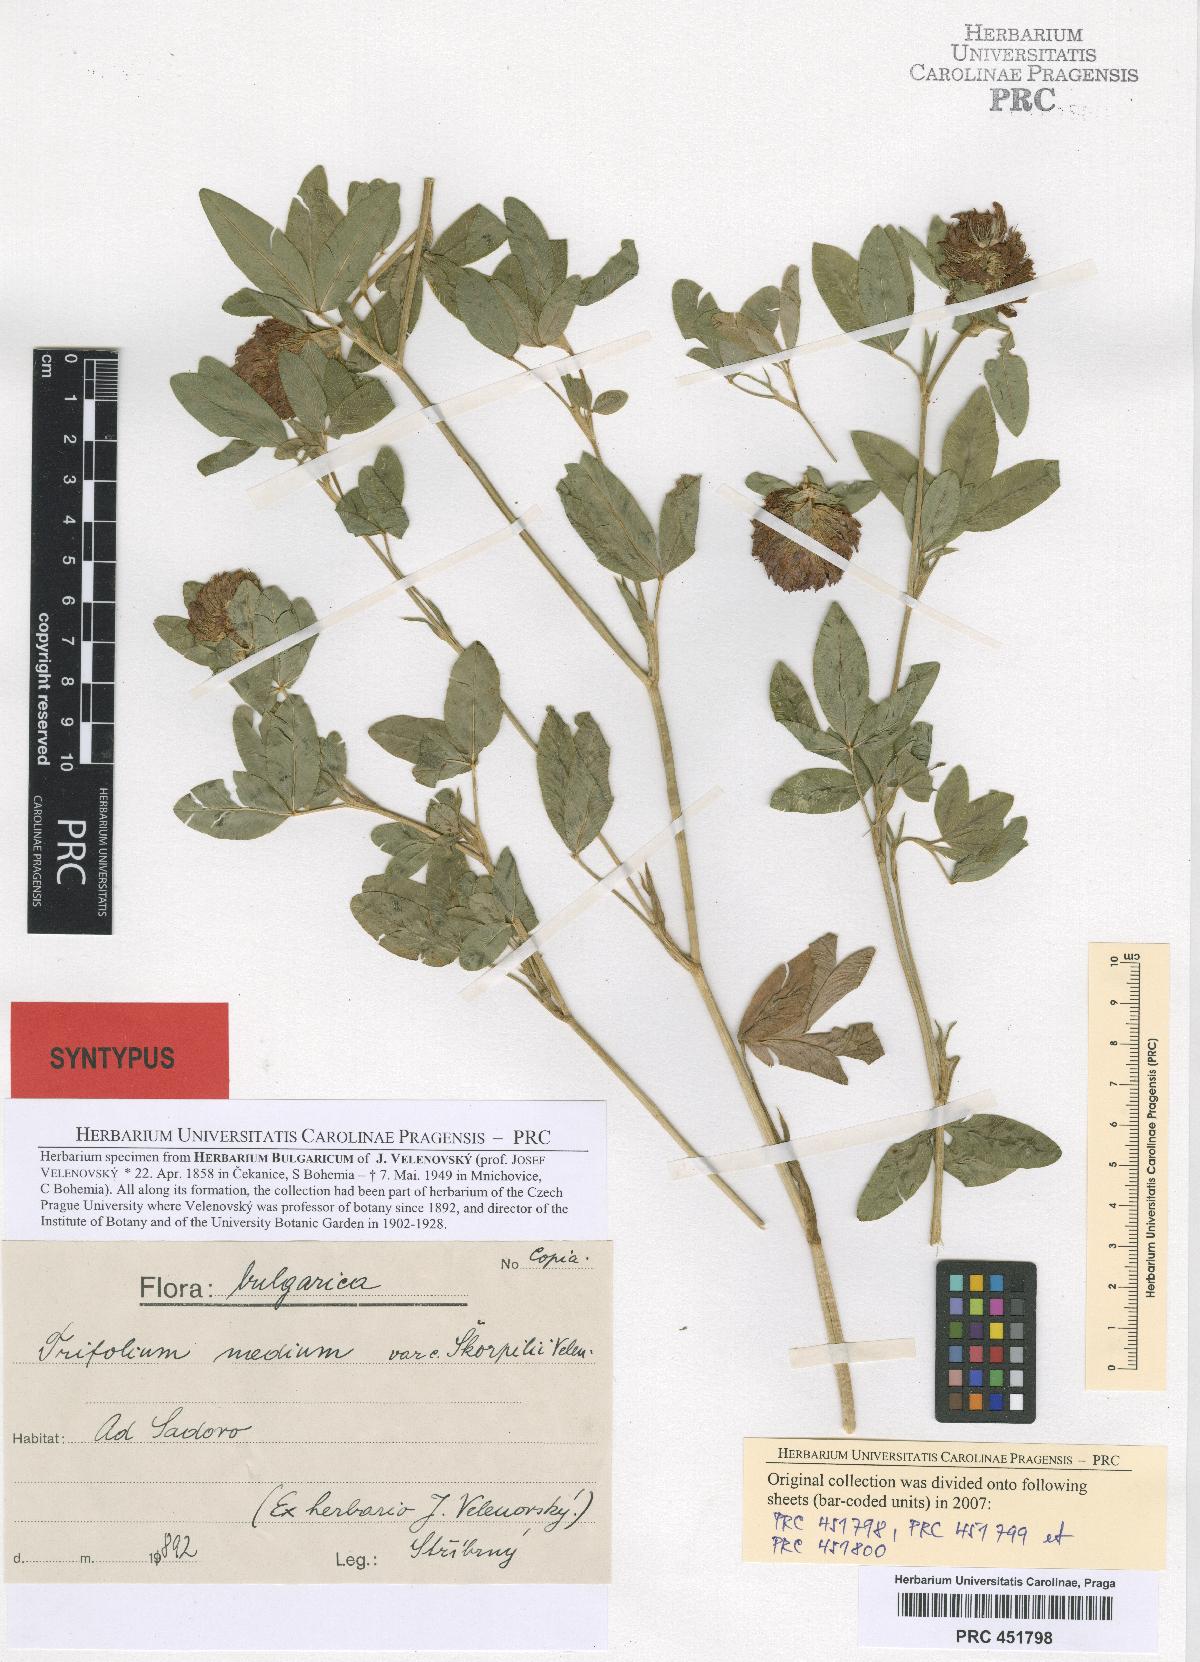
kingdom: Plantae
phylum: Tracheophyta
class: Magnoliopsida
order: Fabales
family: Fabaceae
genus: Trifolium
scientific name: Trifolium medium
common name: Zigzag clover
